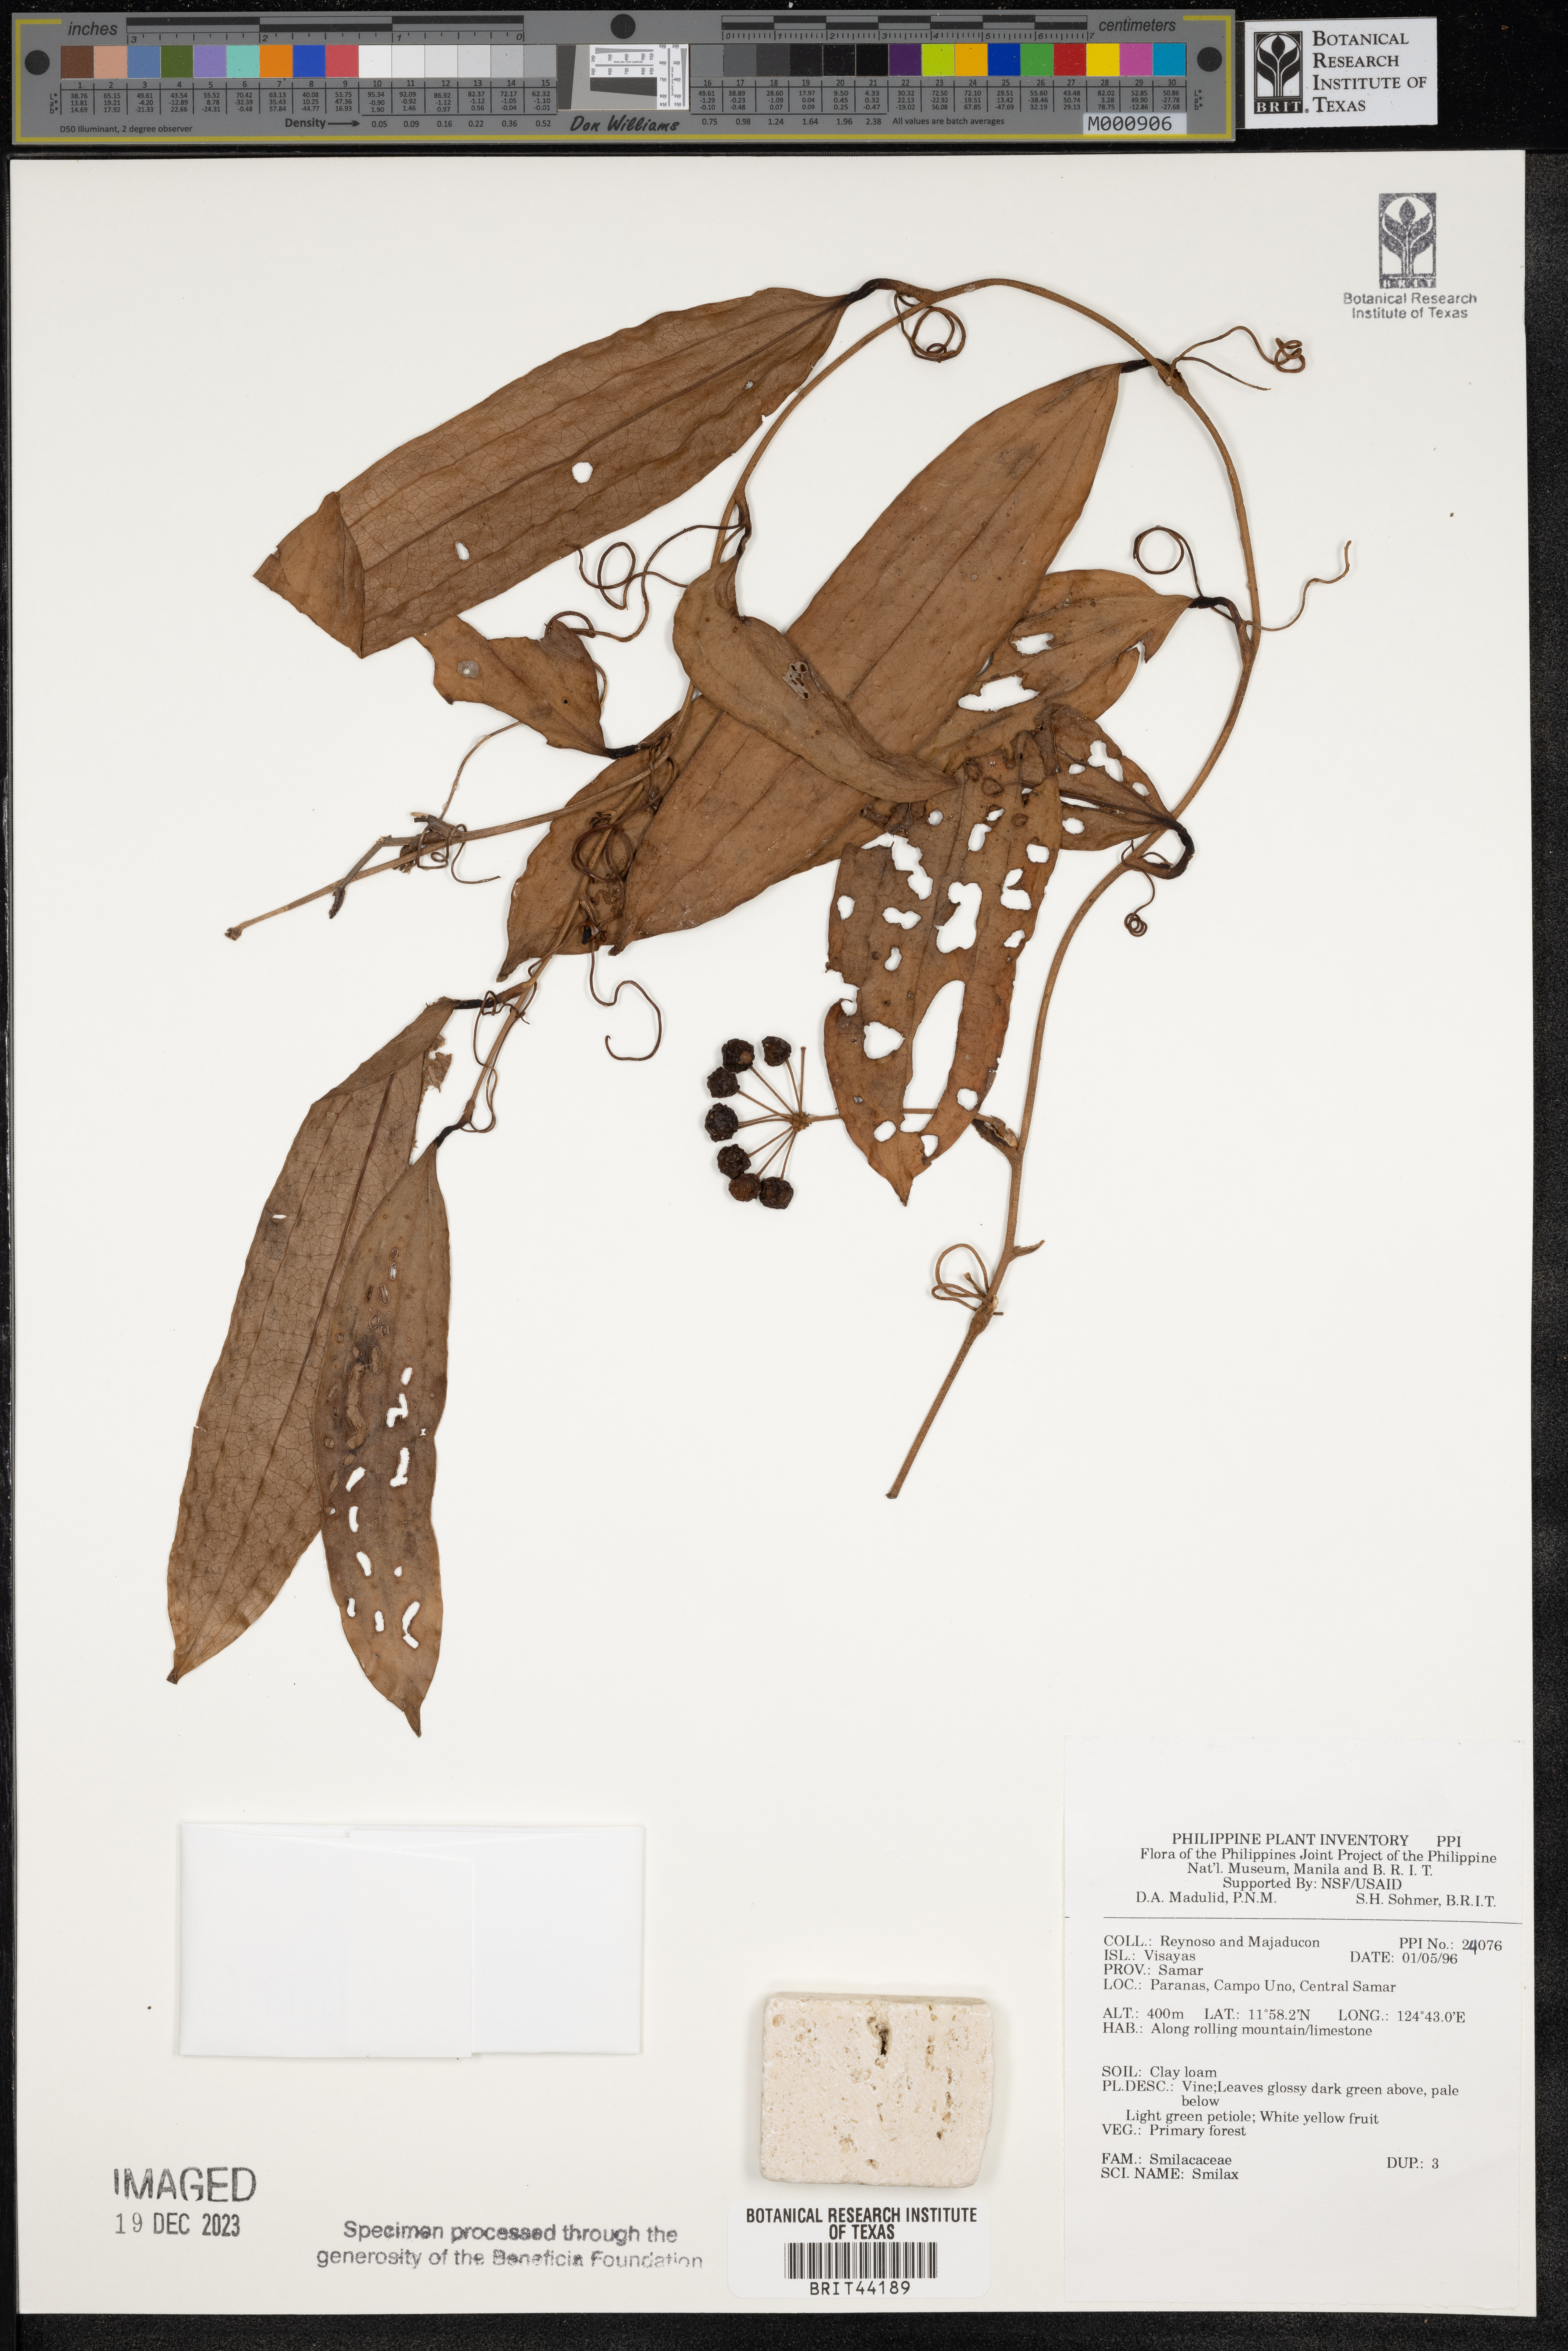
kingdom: Plantae
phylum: Tracheophyta
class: Liliopsida
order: Liliales
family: Smilacaceae
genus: Smilax
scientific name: Smilax
